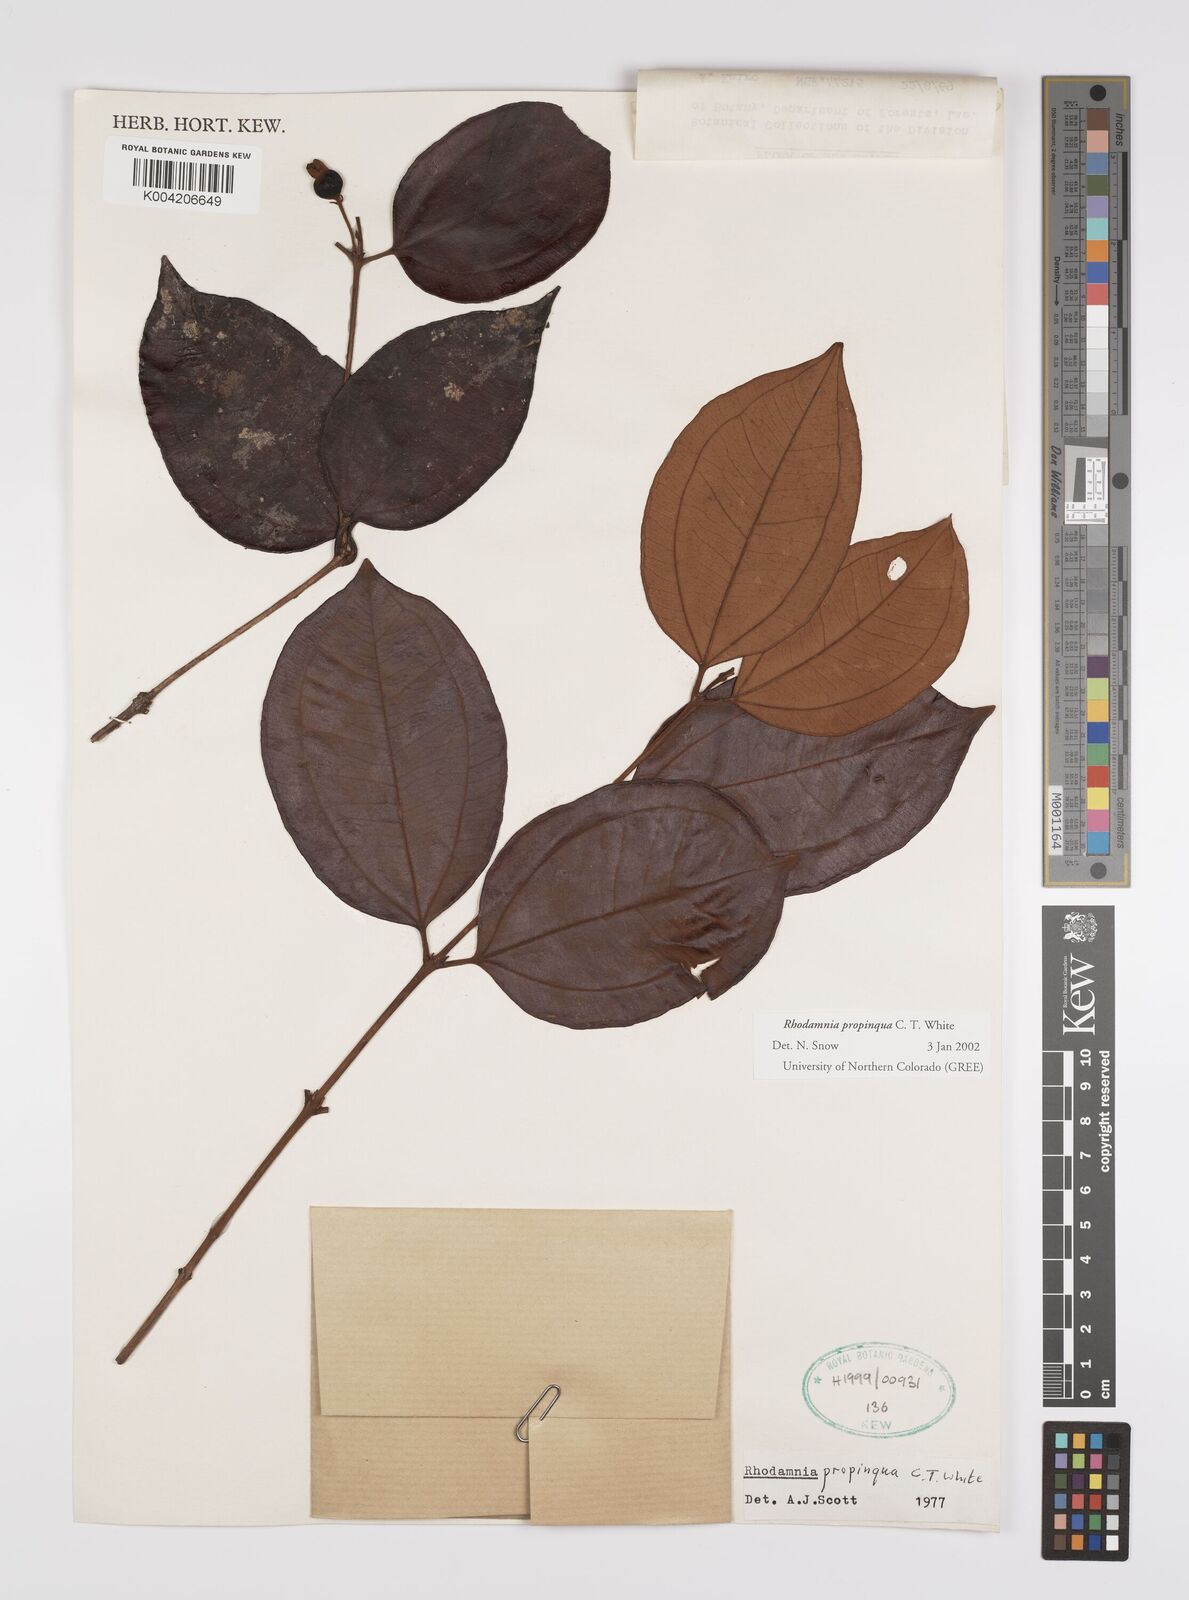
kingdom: Plantae
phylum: Tracheophyta
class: Magnoliopsida
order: Myrtales
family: Myrtaceae
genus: Rhodamnia
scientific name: Rhodamnia blairiana
